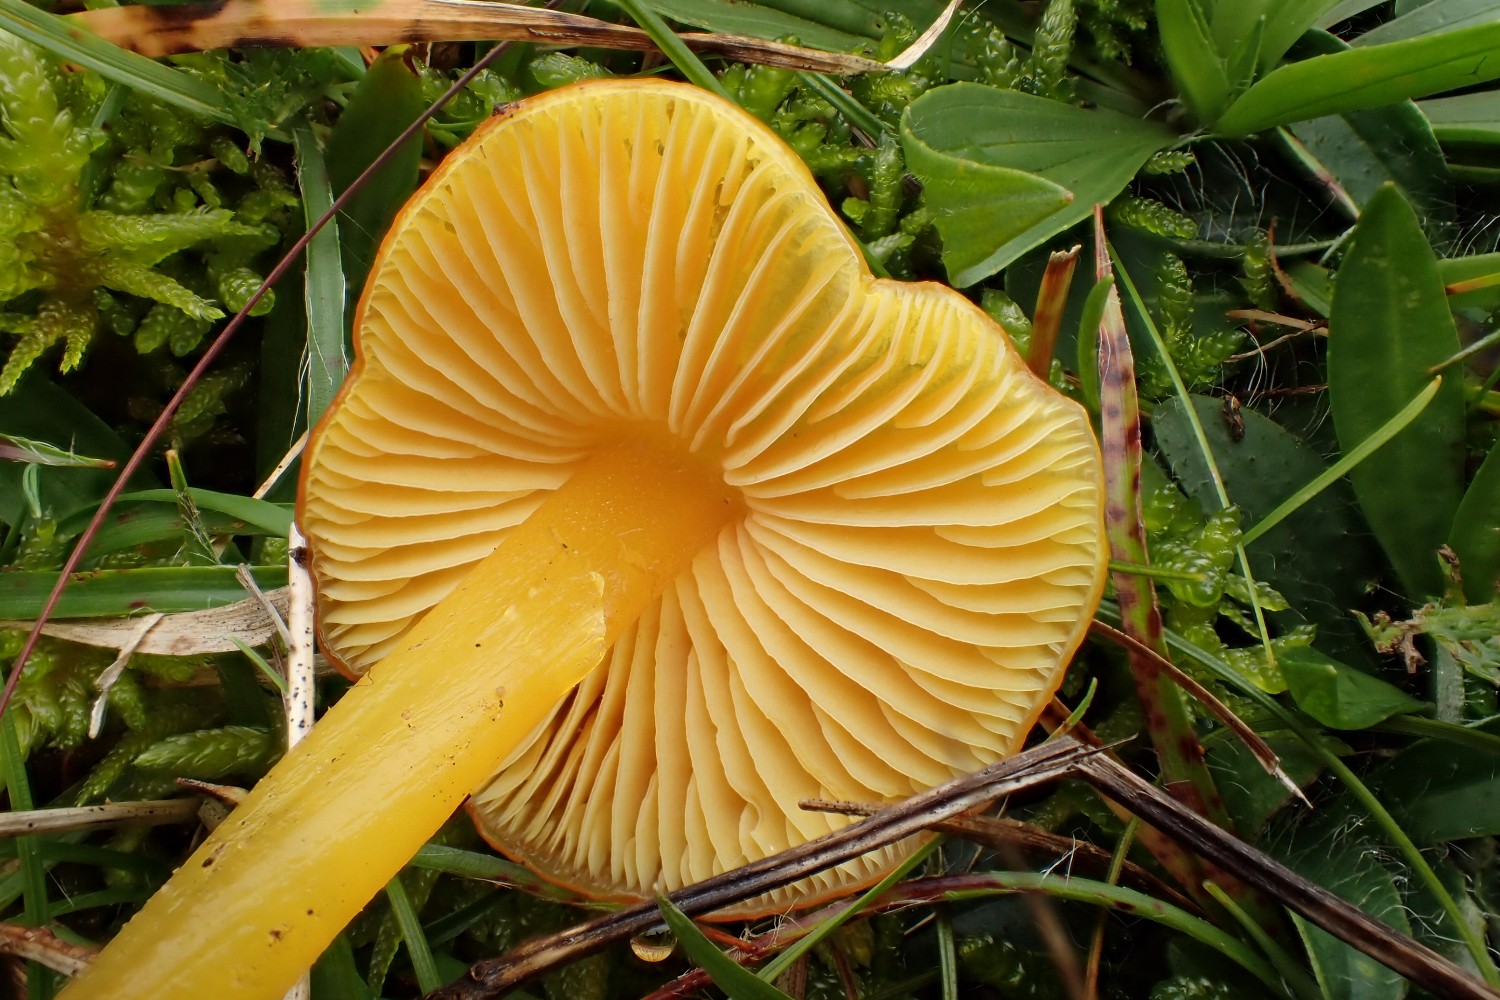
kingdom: Fungi
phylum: Basidiomycota
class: Agaricomycetes
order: Agaricales
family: Hygrophoraceae
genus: Hygrocybe
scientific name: Hygrocybe chlorophana
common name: gul vokshat
